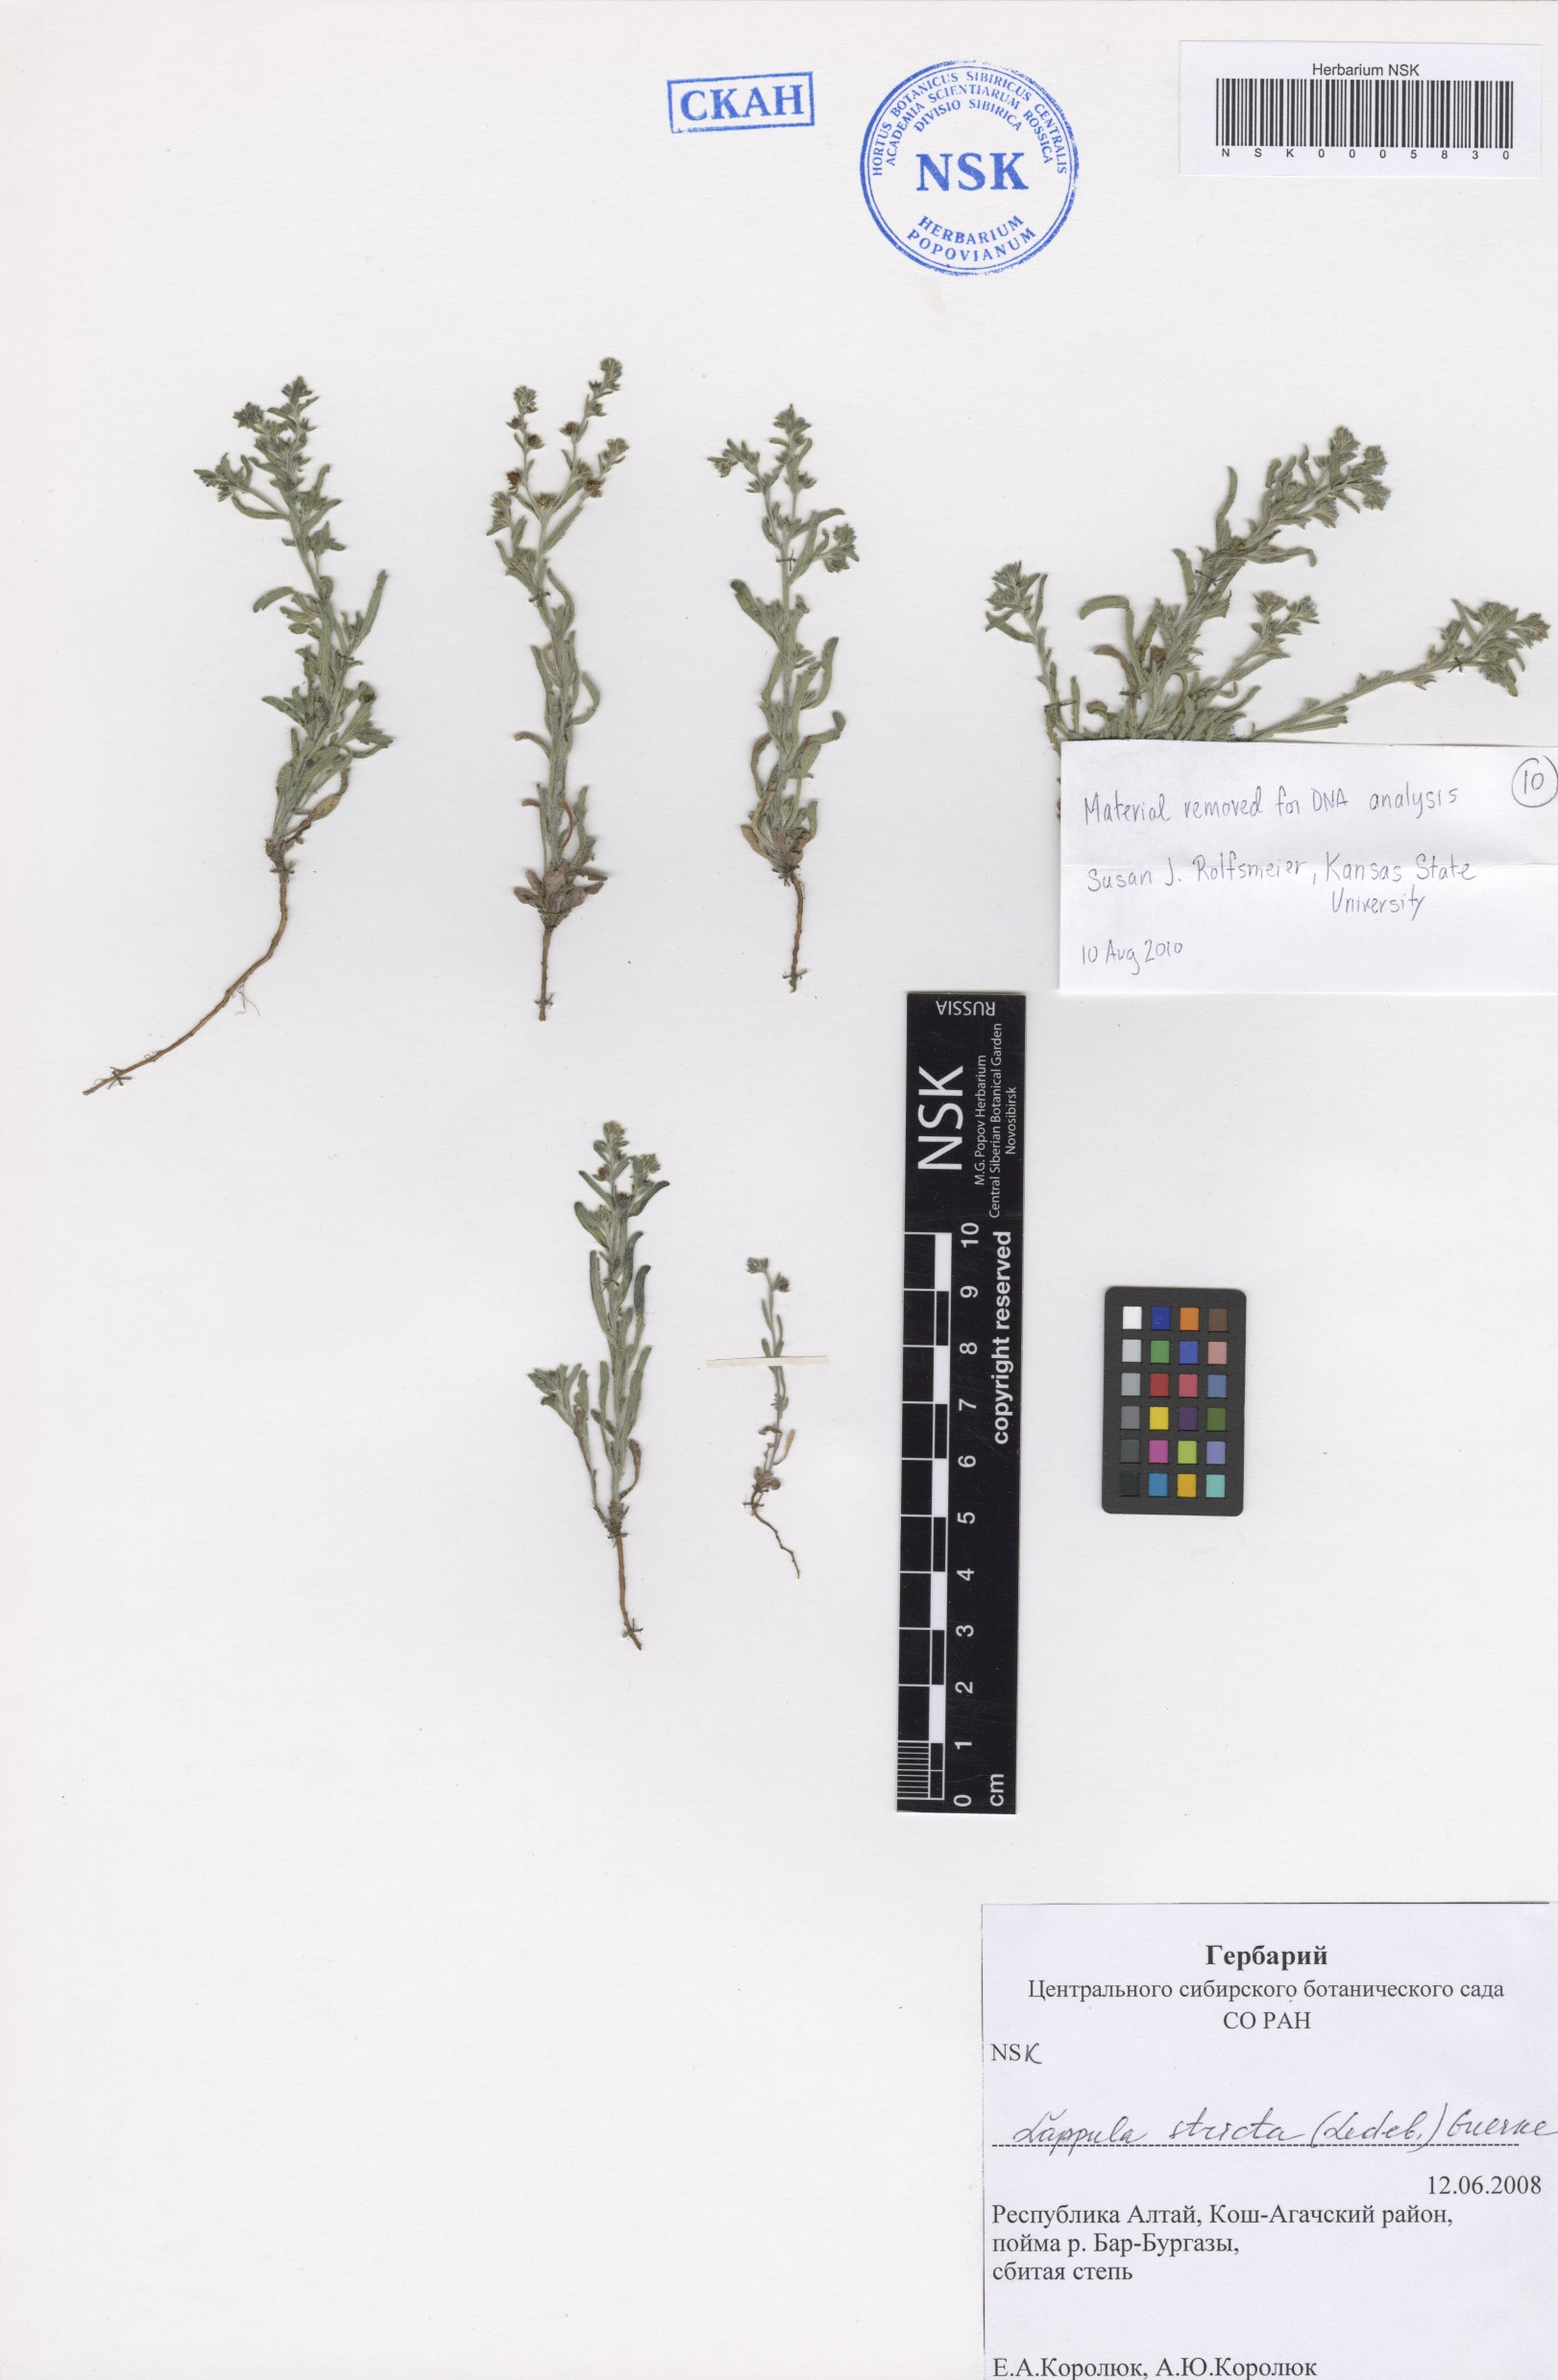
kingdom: Plantae
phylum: Tracheophyta
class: Magnoliopsida
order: Boraginales
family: Boraginaceae
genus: Lappula
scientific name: Lappula stricta
